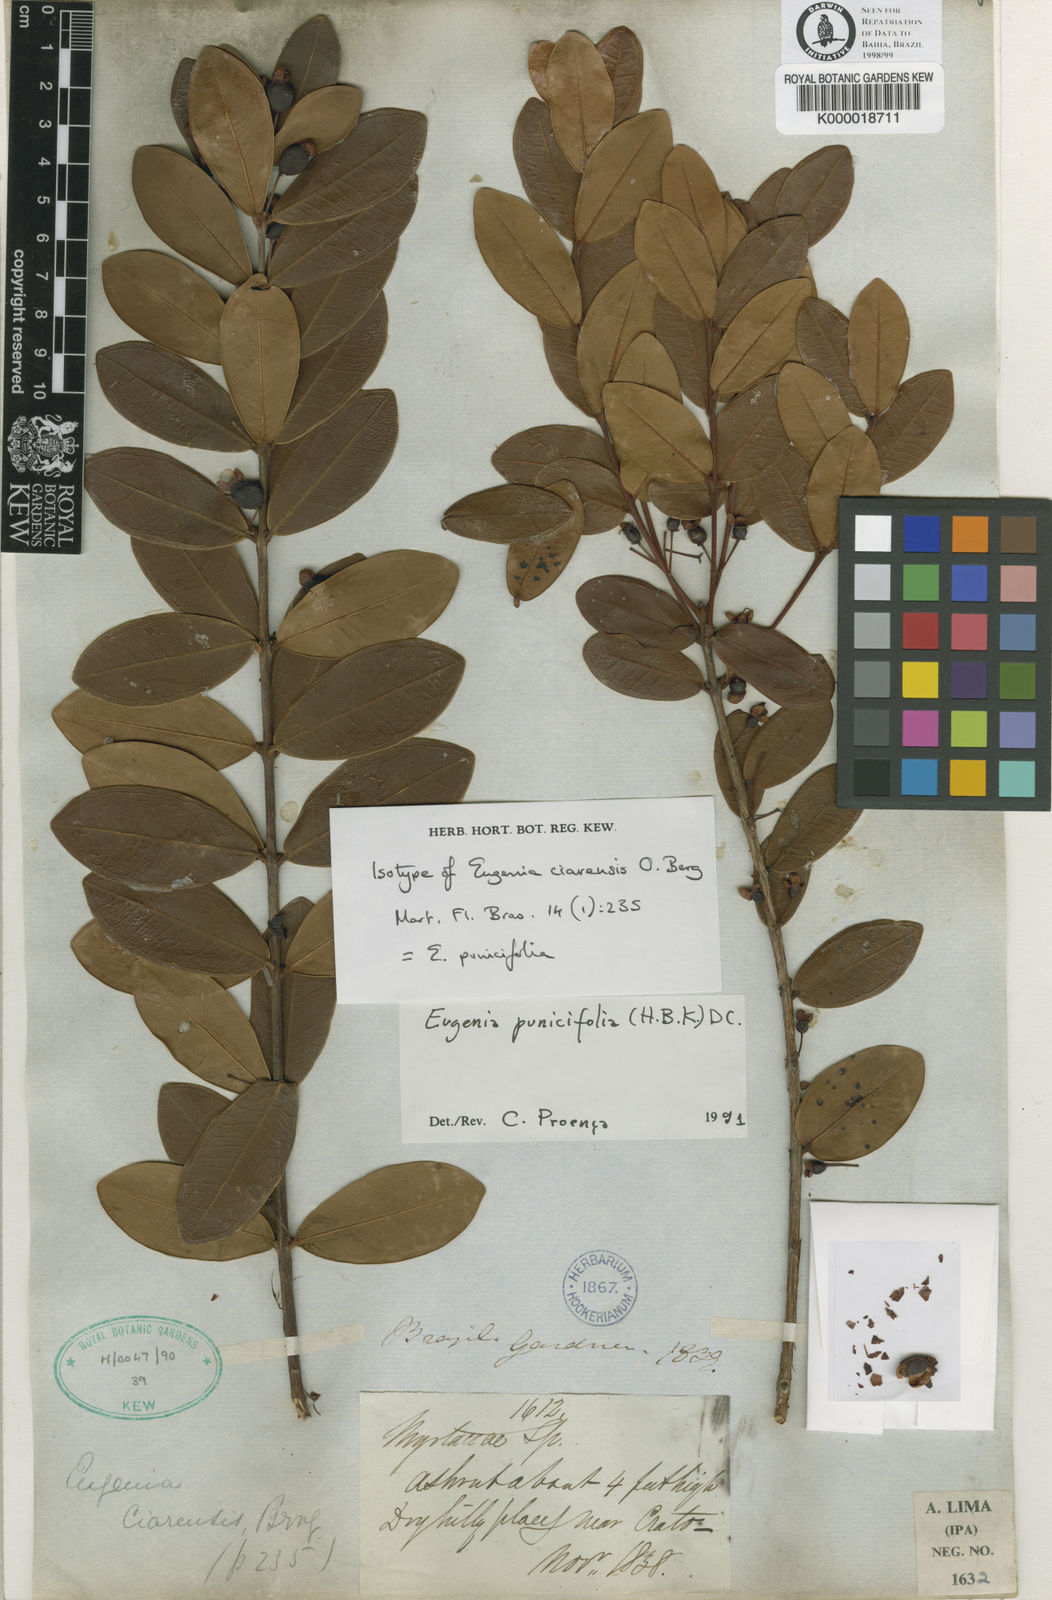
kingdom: Plantae
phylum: Tracheophyta
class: Magnoliopsida
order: Myrtales
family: Myrtaceae
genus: Eugenia
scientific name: Eugenia punicifolia
